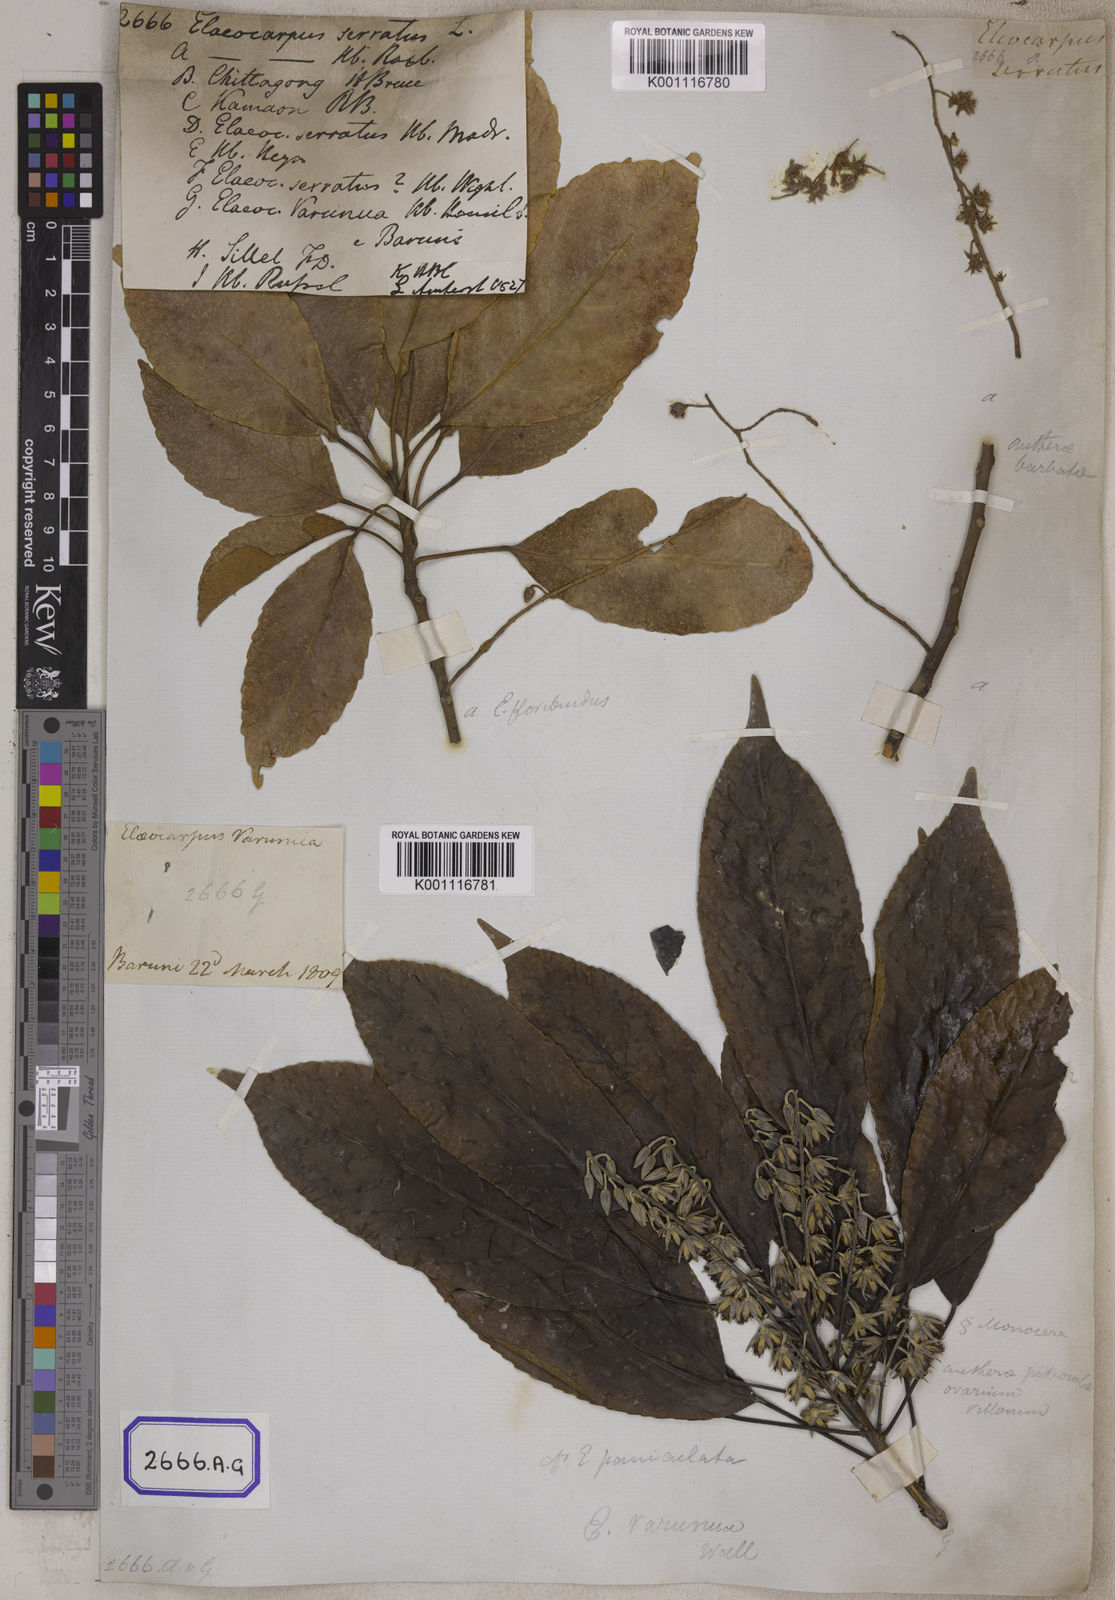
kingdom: Plantae
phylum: Tracheophyta
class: Magnoliopsida
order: Oxalidales
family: Elaeocarpaceae
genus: Elaeocarpus
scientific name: Elaeocarpus serratus
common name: Ceylon-olive
